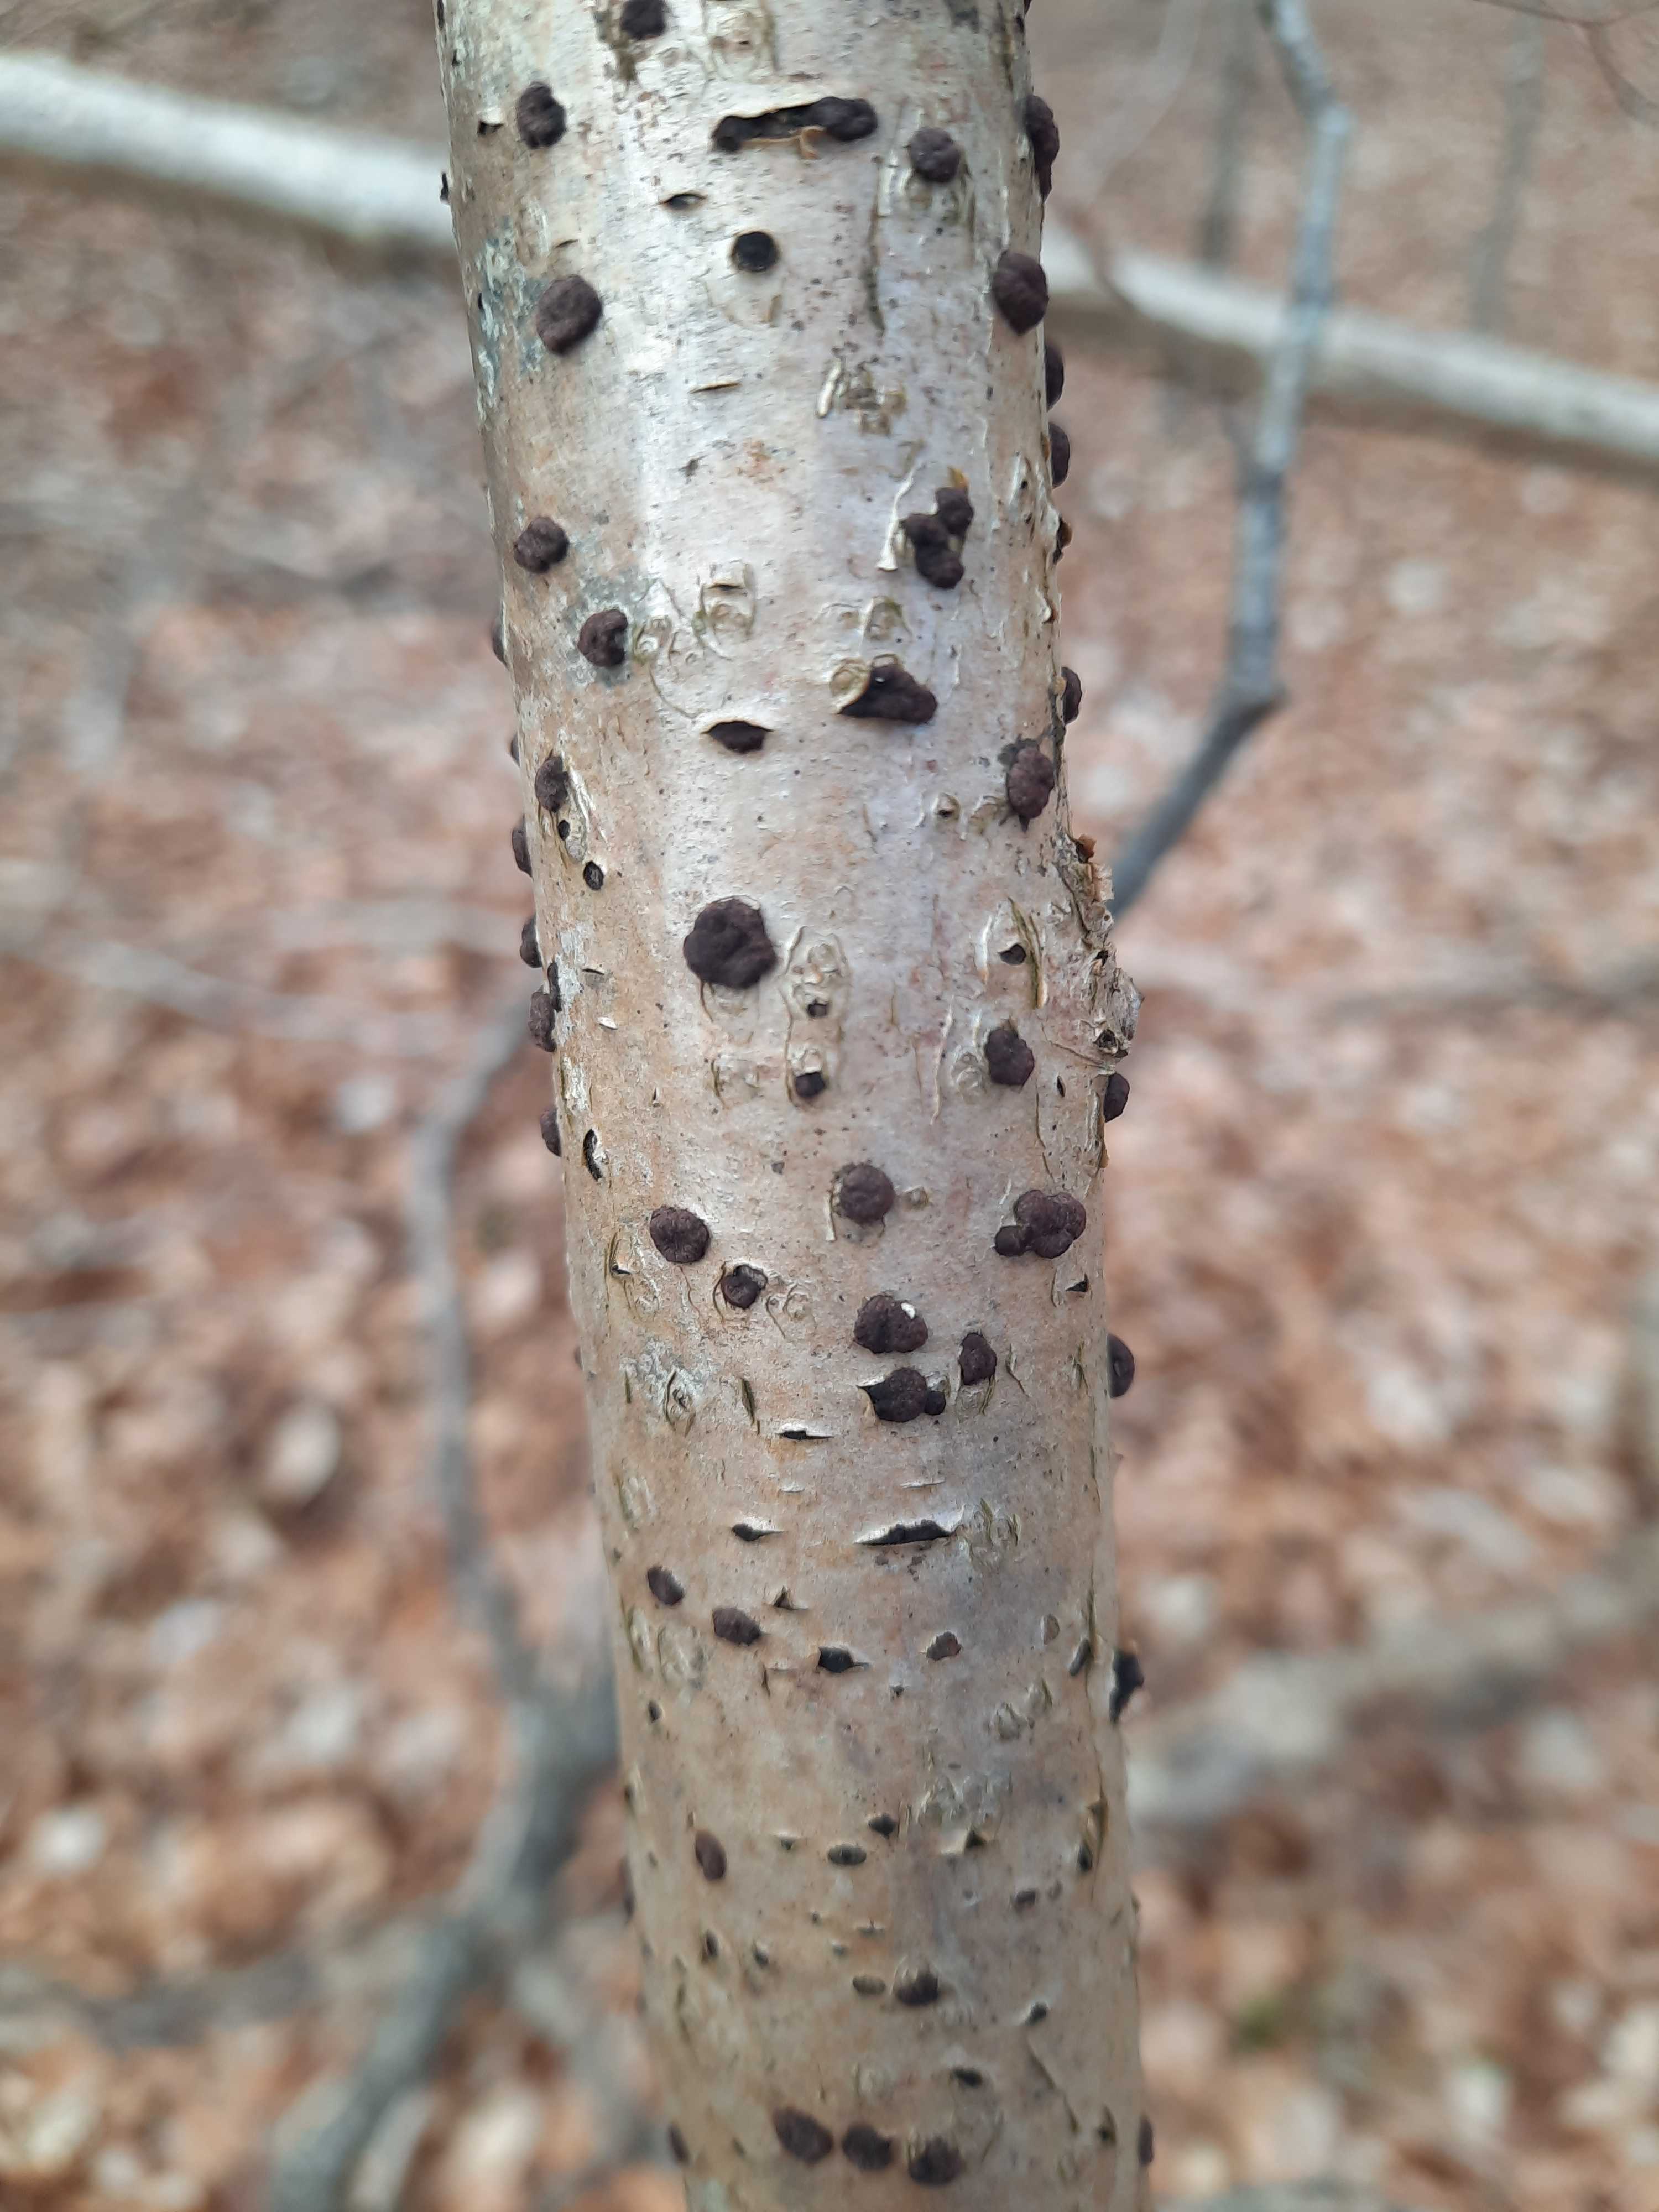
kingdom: Fungi
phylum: Ascomycota
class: Sordariomycetes
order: Xylariales
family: Hypoxylaceae
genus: Hypoxylon
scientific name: Hypoxylon fuscum
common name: kegleformet kulbær
